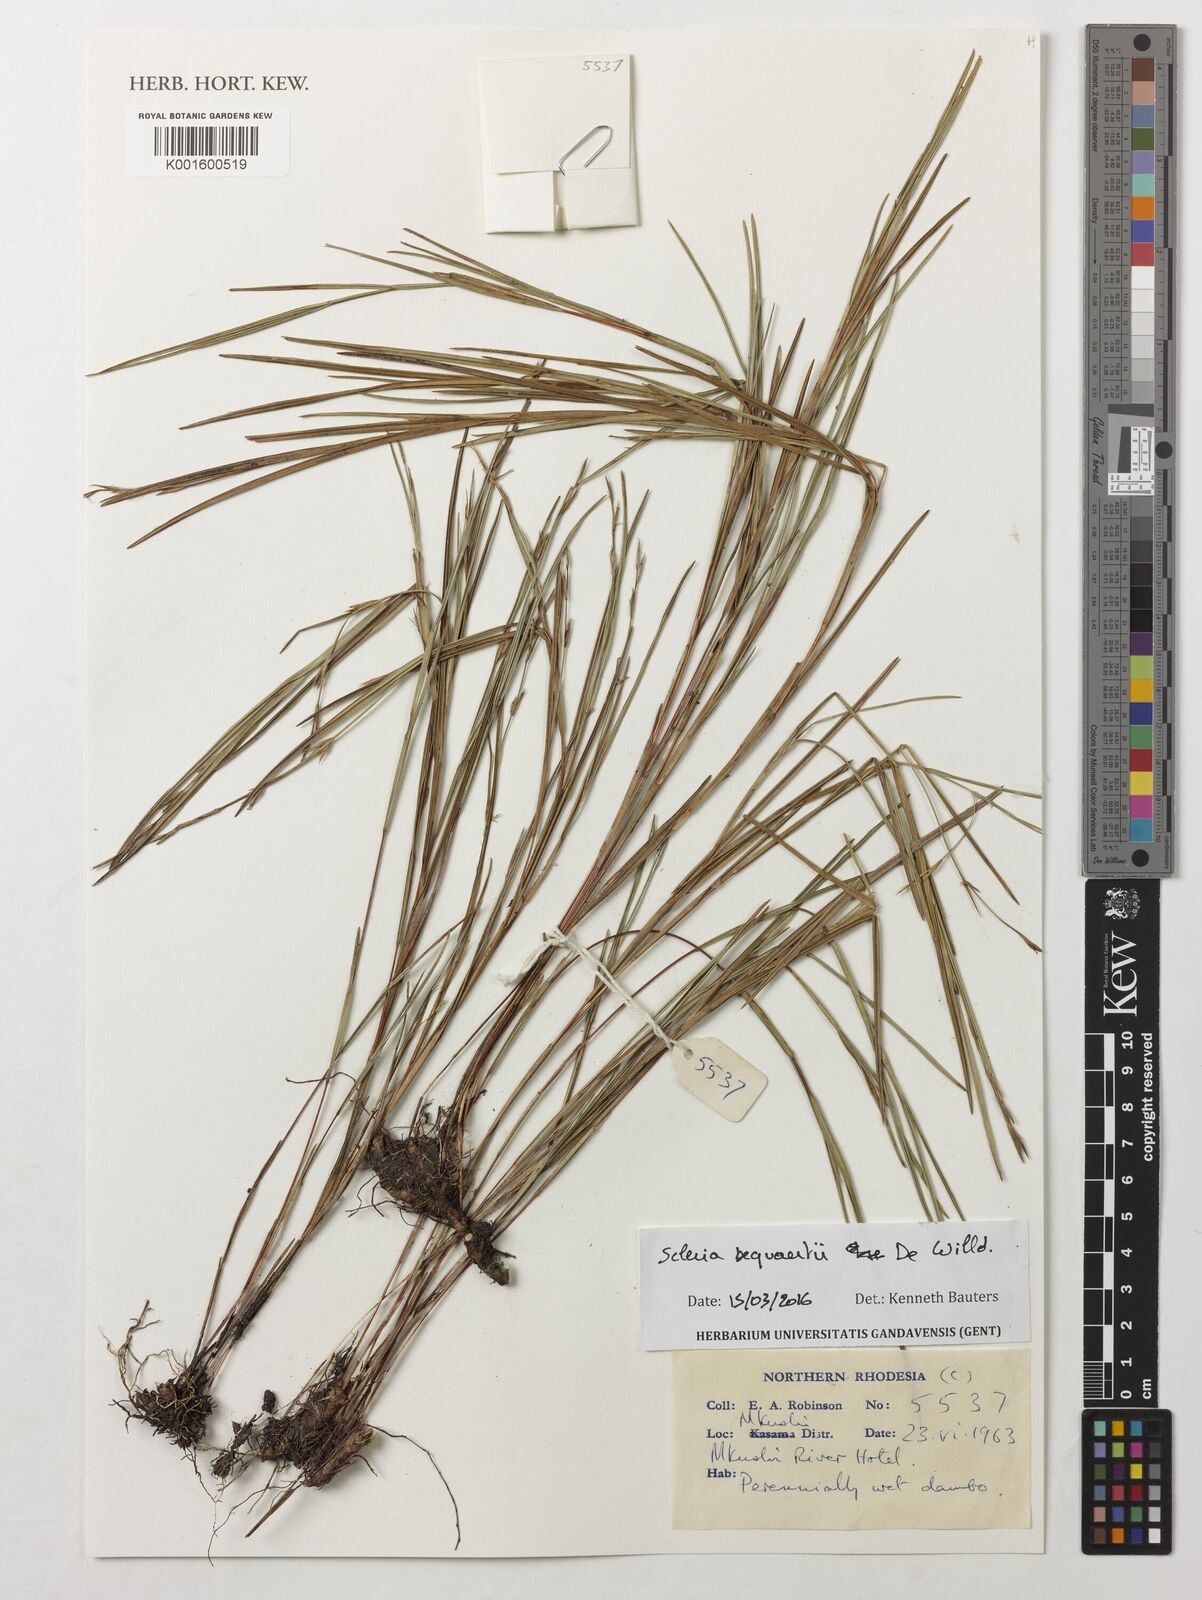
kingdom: Plantae
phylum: Tracheophyta
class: Liliopsida
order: Poales
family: Cyperaceae
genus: Scleria
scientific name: Scleria bequaertii
